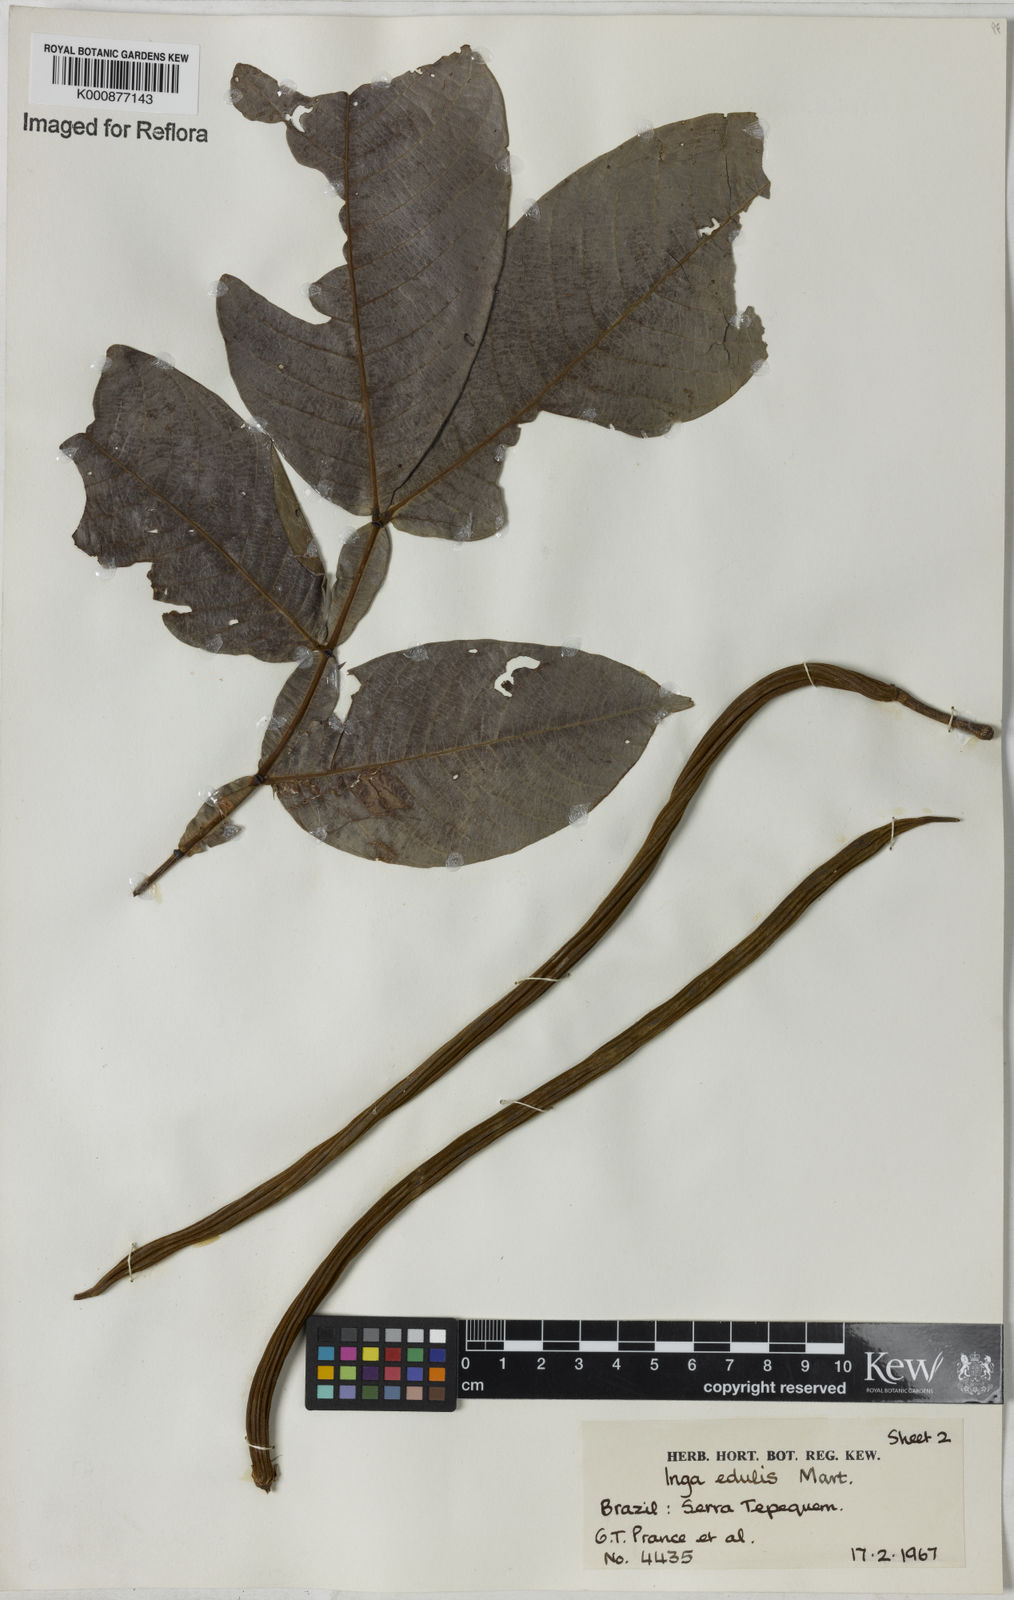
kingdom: Plantae
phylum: Tracheophyta
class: Magnoliopsida
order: Fabales
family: Fabaceae
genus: Inga
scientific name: Inga edulis
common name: Ice cream bean
